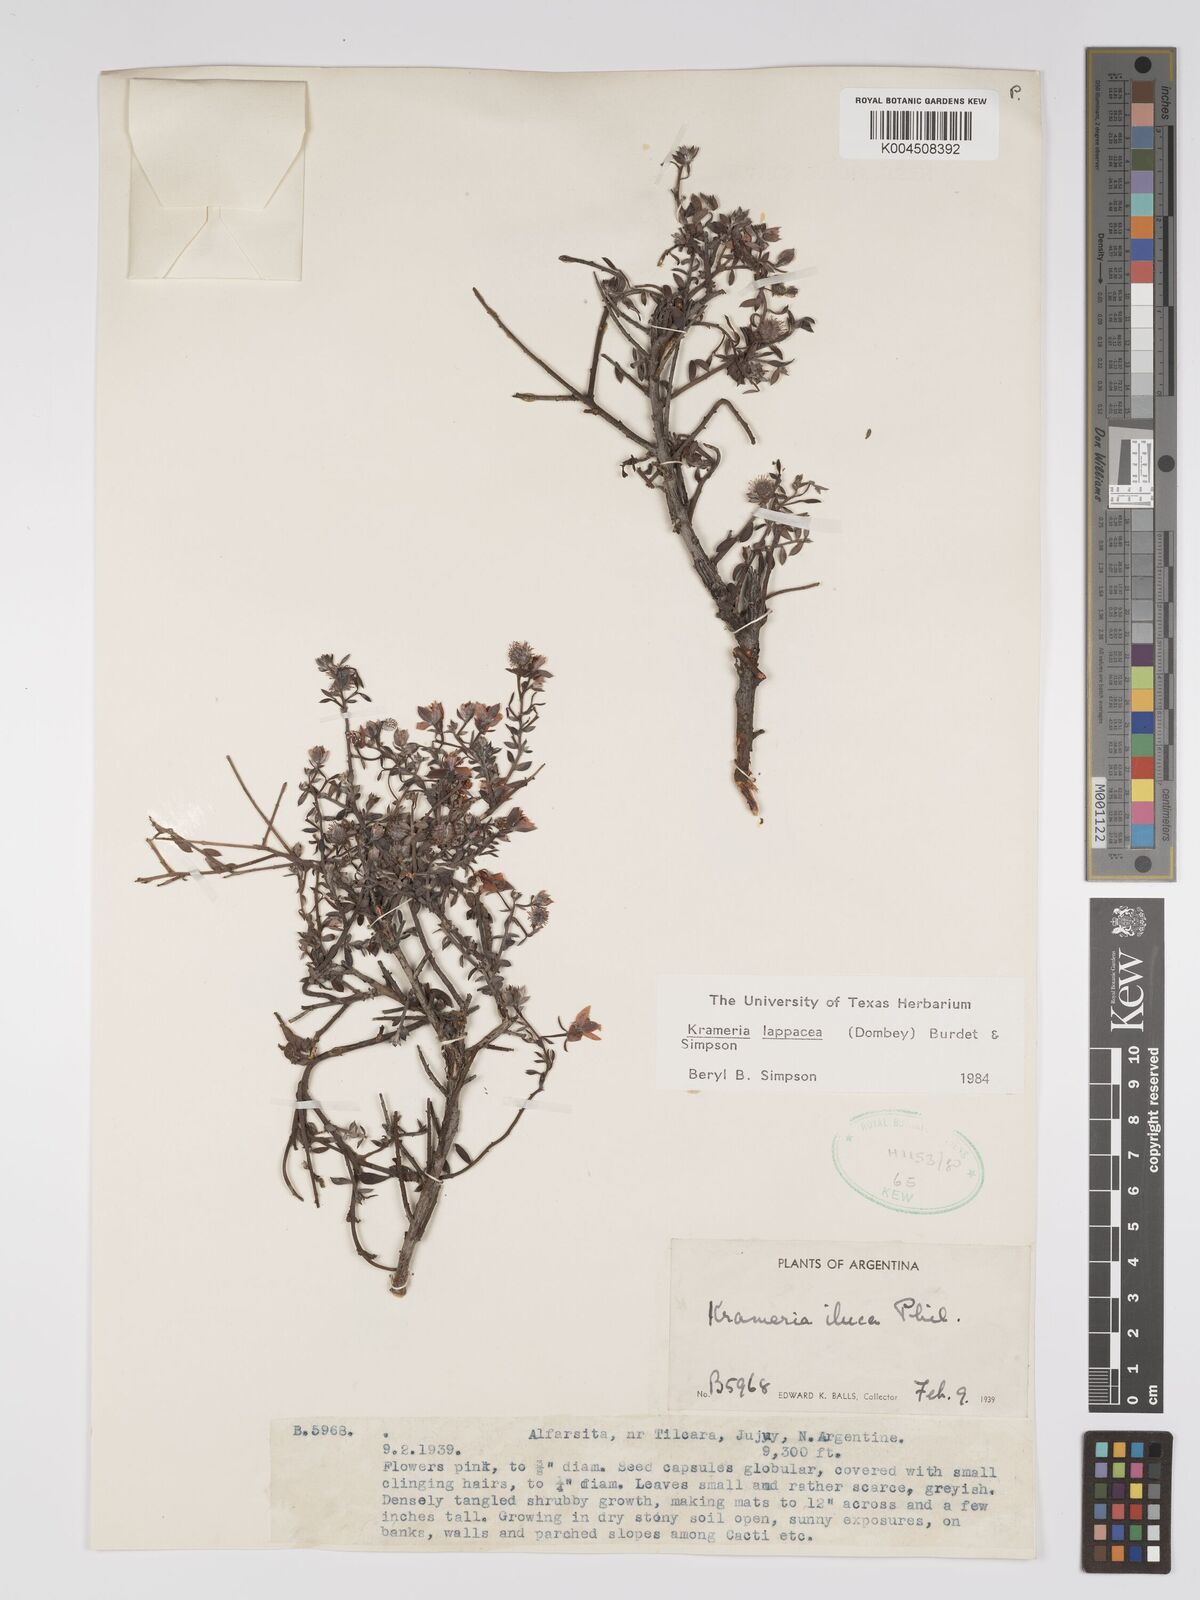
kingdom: Plantae
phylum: Tracheophyta
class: Magnoliopsida
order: Zygophyllales
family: Krameriaceae
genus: Krameria
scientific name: Krameria lappacea
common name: Rhatany
